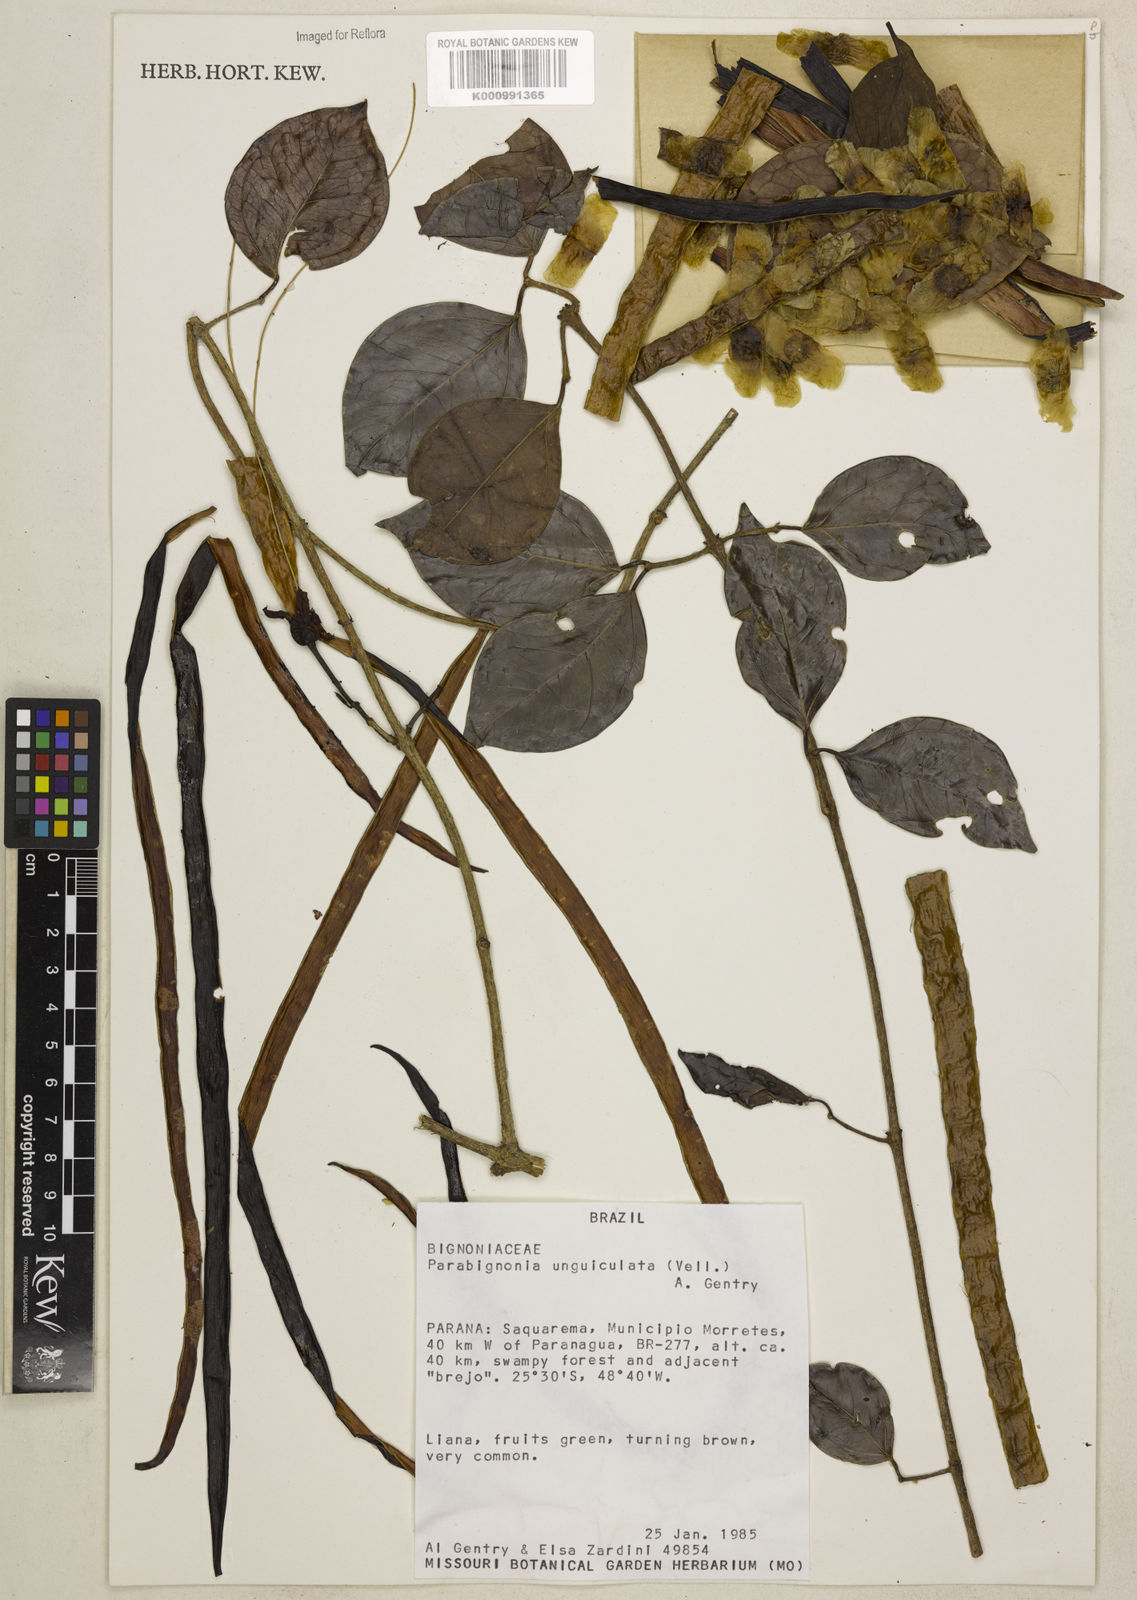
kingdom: Plantae
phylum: Tracheophyta
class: Magnoliopsida
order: Lamiales
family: Bignoniaceae
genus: Adenocalymma
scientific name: Adenocalymma
